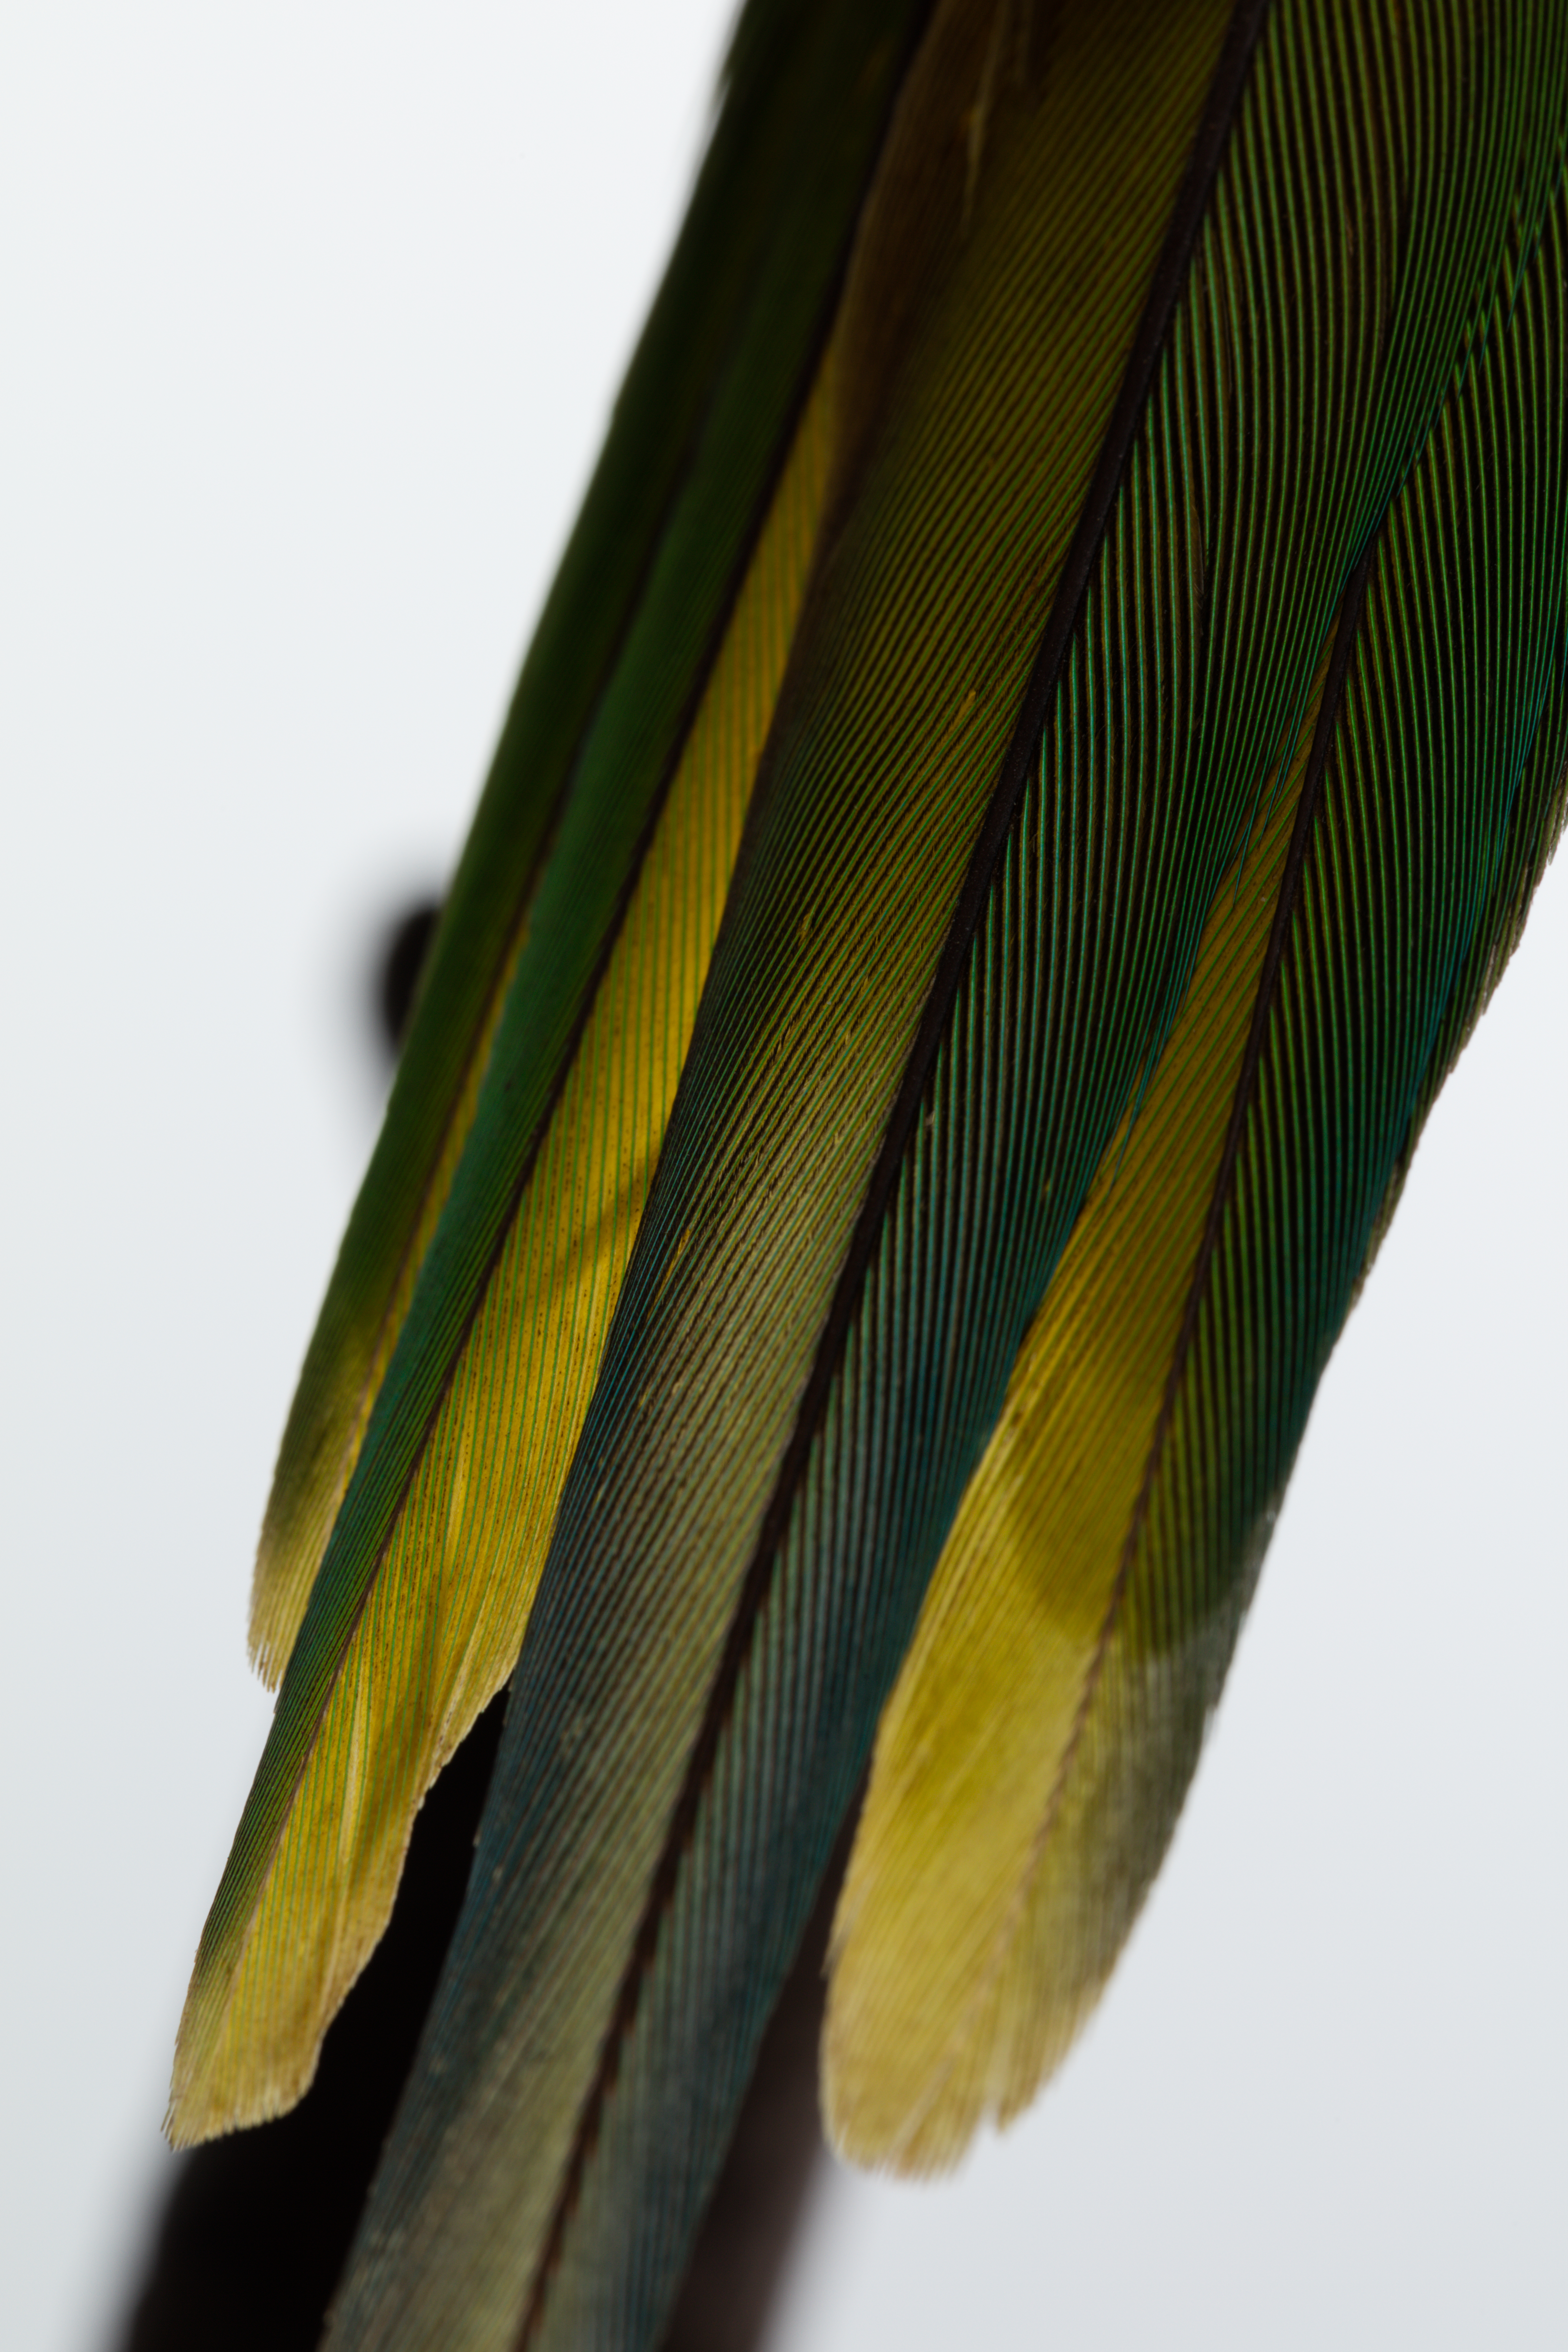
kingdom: Animalia
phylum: Chordata
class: Aves
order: Psittaciformes
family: Psittacidae
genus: Psittacula
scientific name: Psittacula cyanocephala
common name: Plum-headed parakeet
